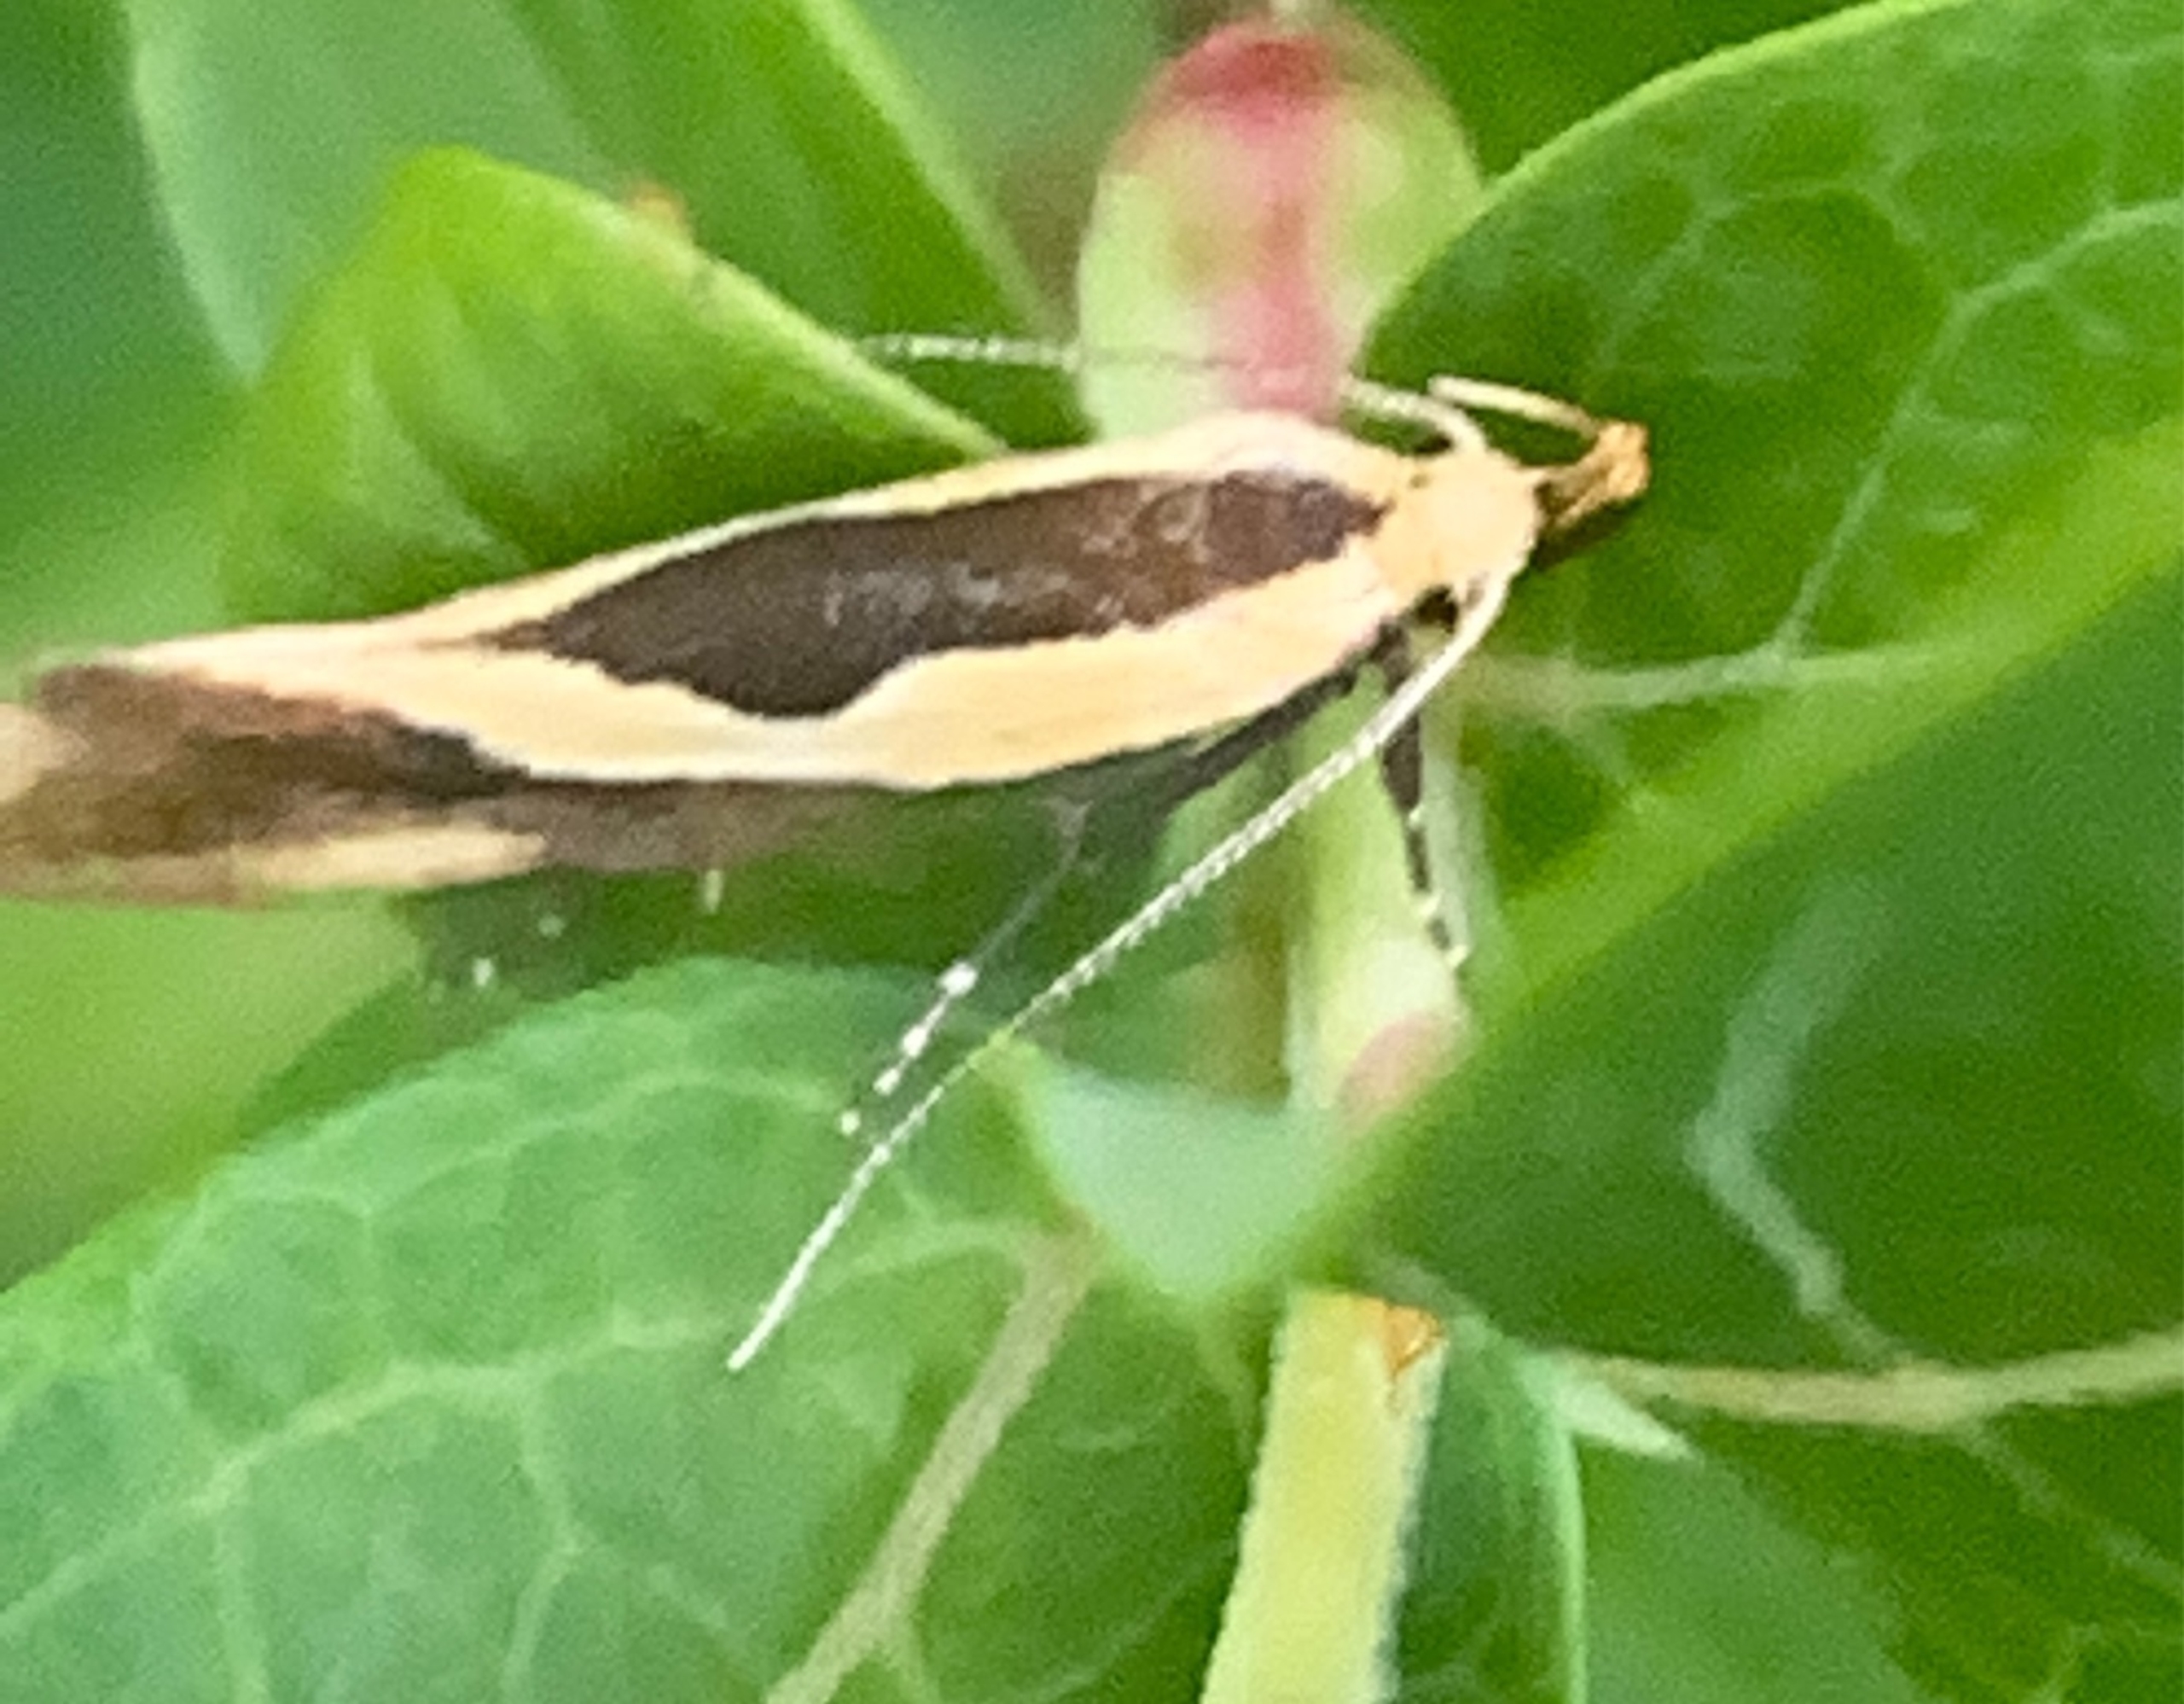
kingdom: Animalia
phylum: Arthropoda
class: Insecta
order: Lepidoptera
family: Oecophoridae
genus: Harpella
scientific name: Harpella forficella
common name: Kæmpeprydvinge
